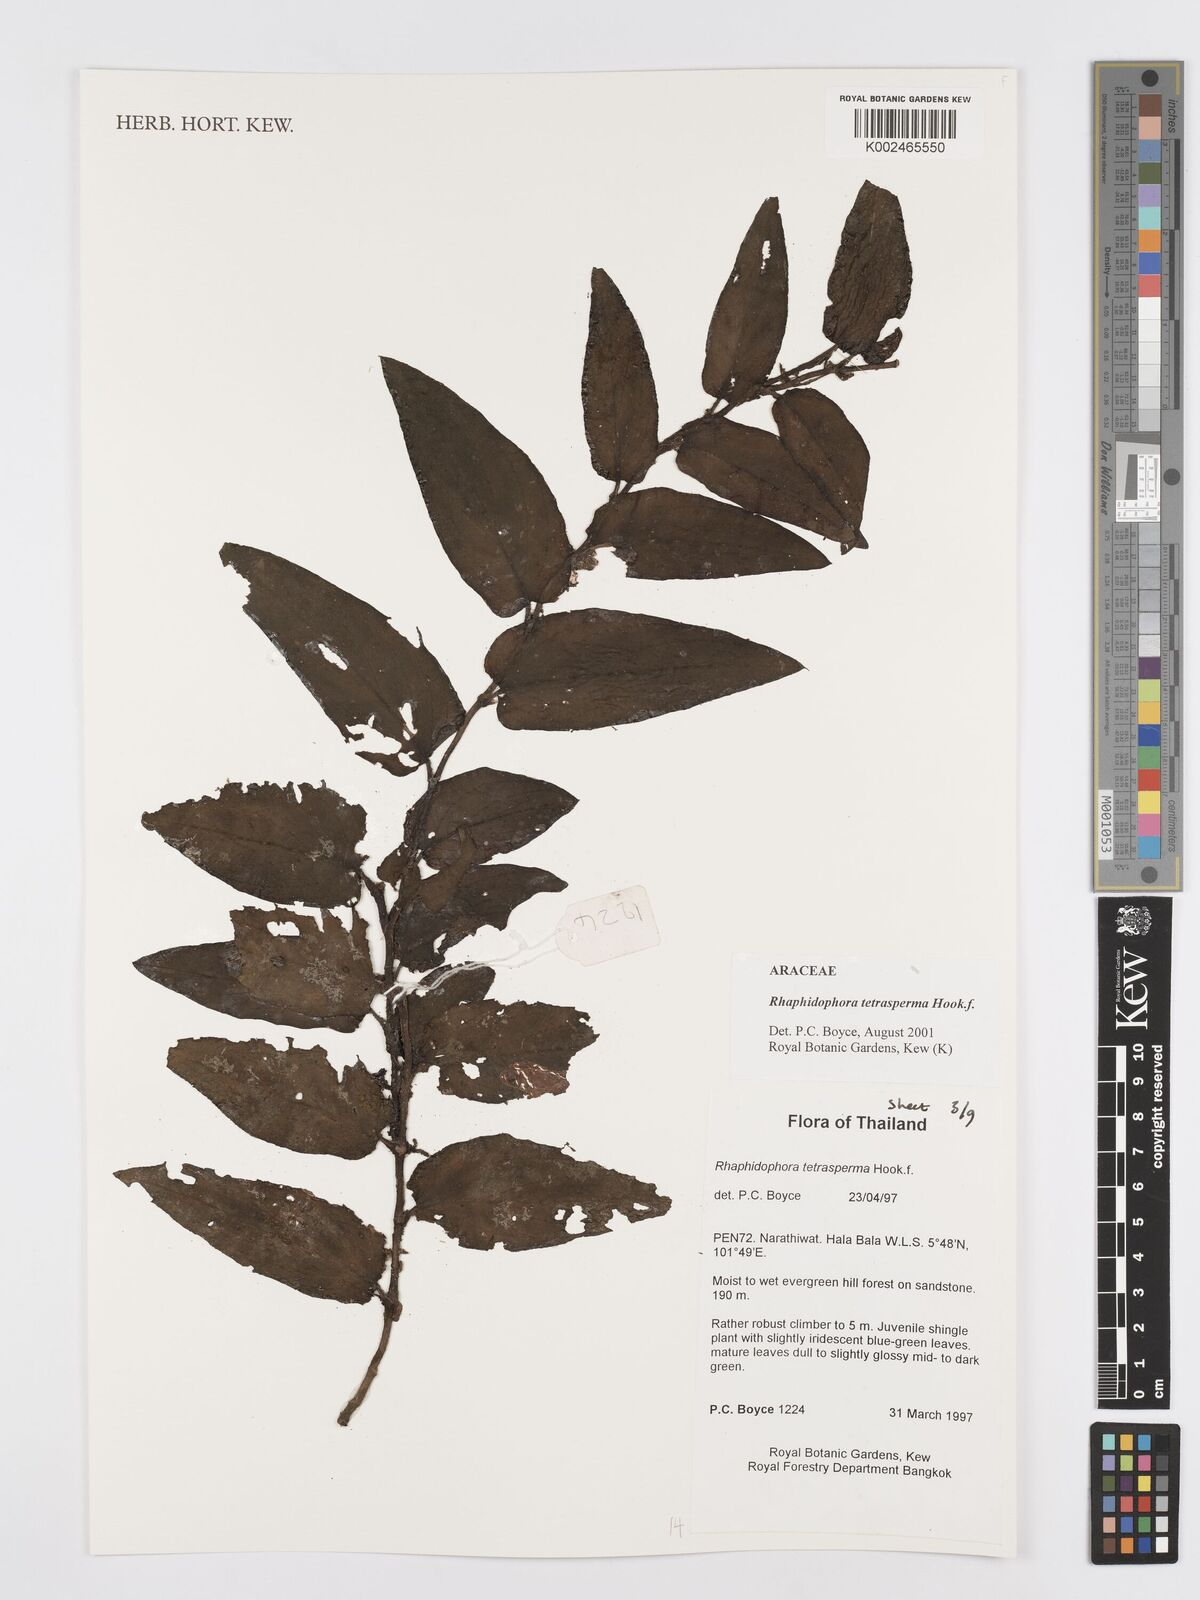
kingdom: Plantae
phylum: Tracheophyta
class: Liliopsida
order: Alismatales
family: Araceae
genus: Rhaphidophora
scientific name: Rhaphidophora tetrasperma
